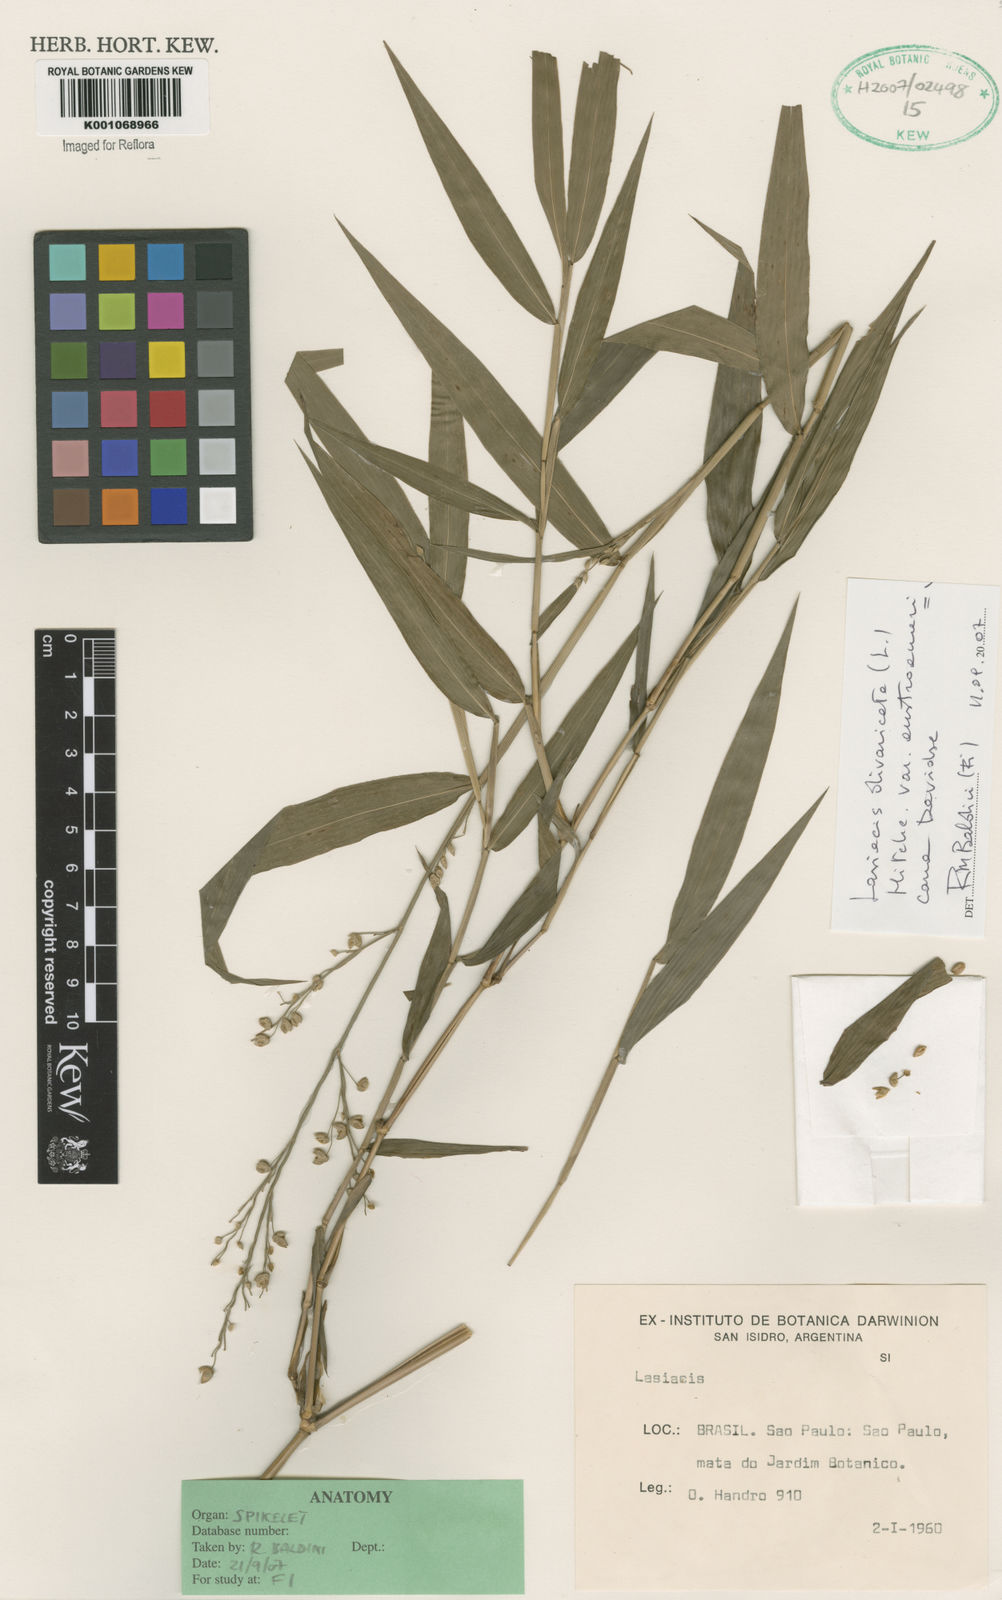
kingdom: Plantae
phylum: Tracheophyta
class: Liliopsida
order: Poales
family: Poaceae
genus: Lasiacis
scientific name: Lasiacis divaricata
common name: Smallcane
